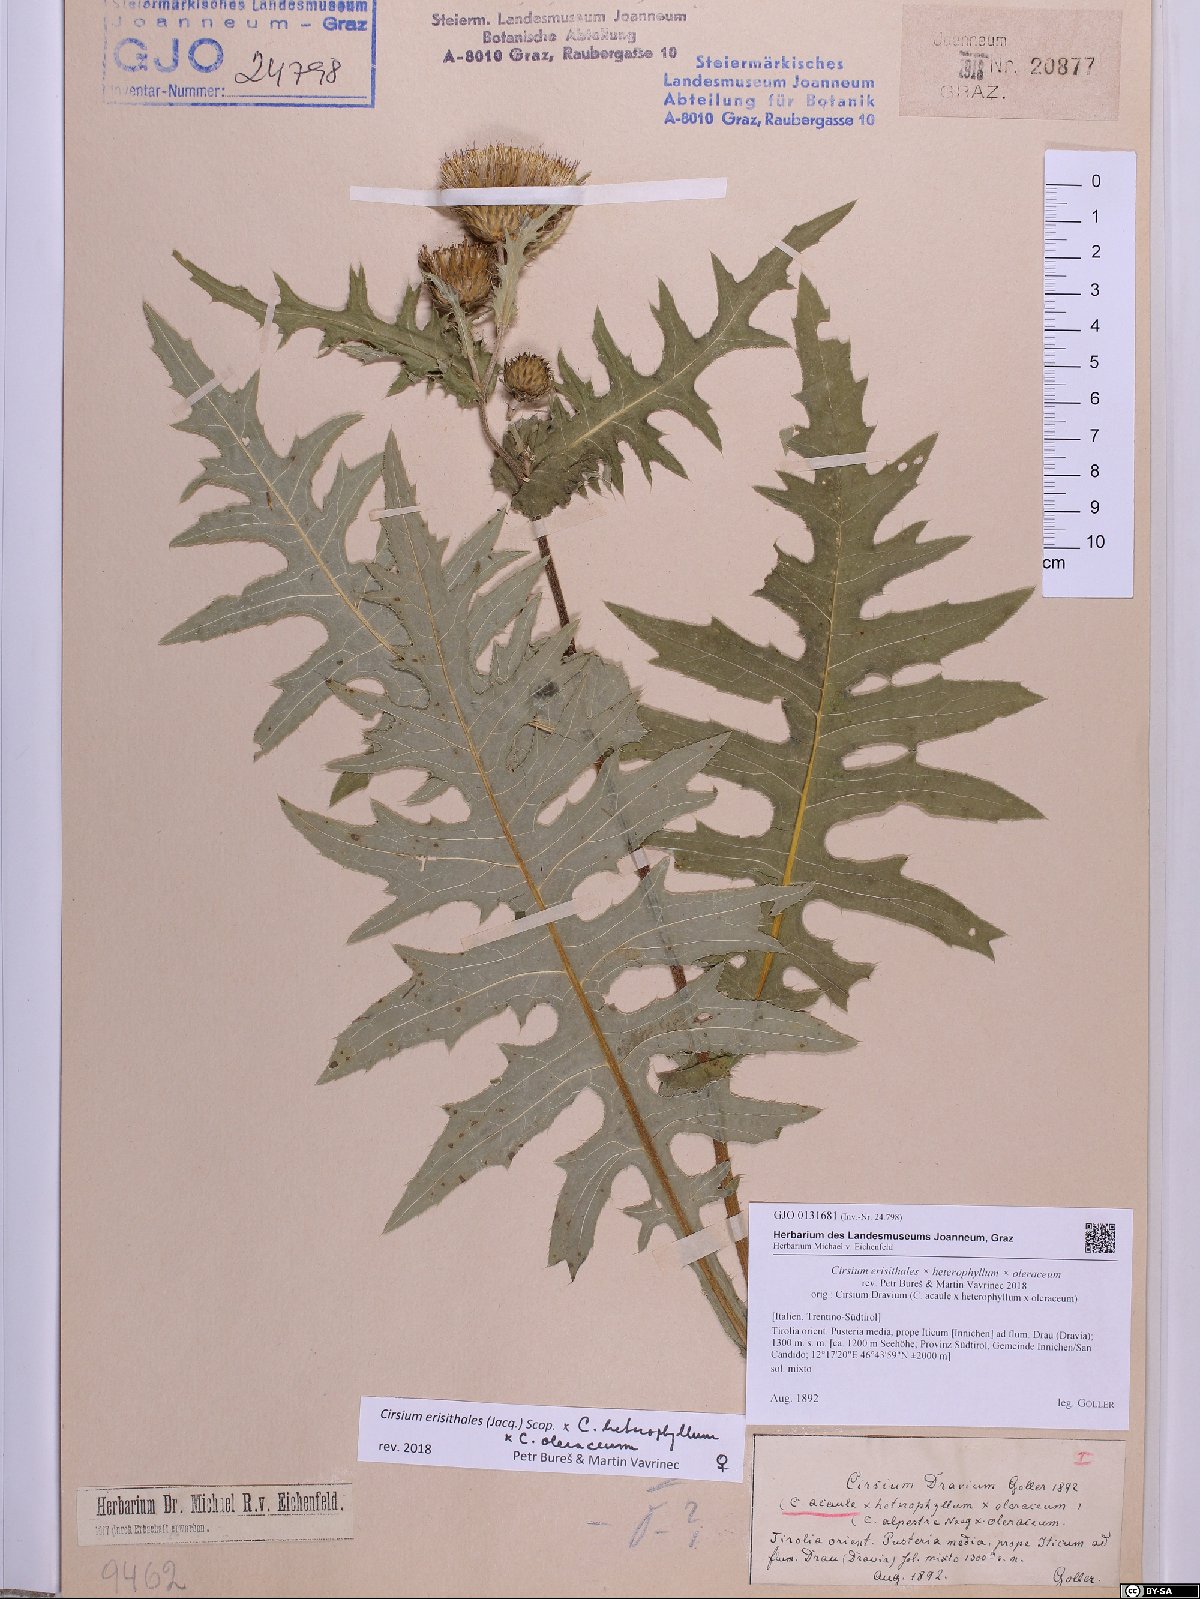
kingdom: Plantae
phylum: Tracheophyta
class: Magnoliopsida
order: Asterales
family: Asteraceae
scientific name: Asteraceae
